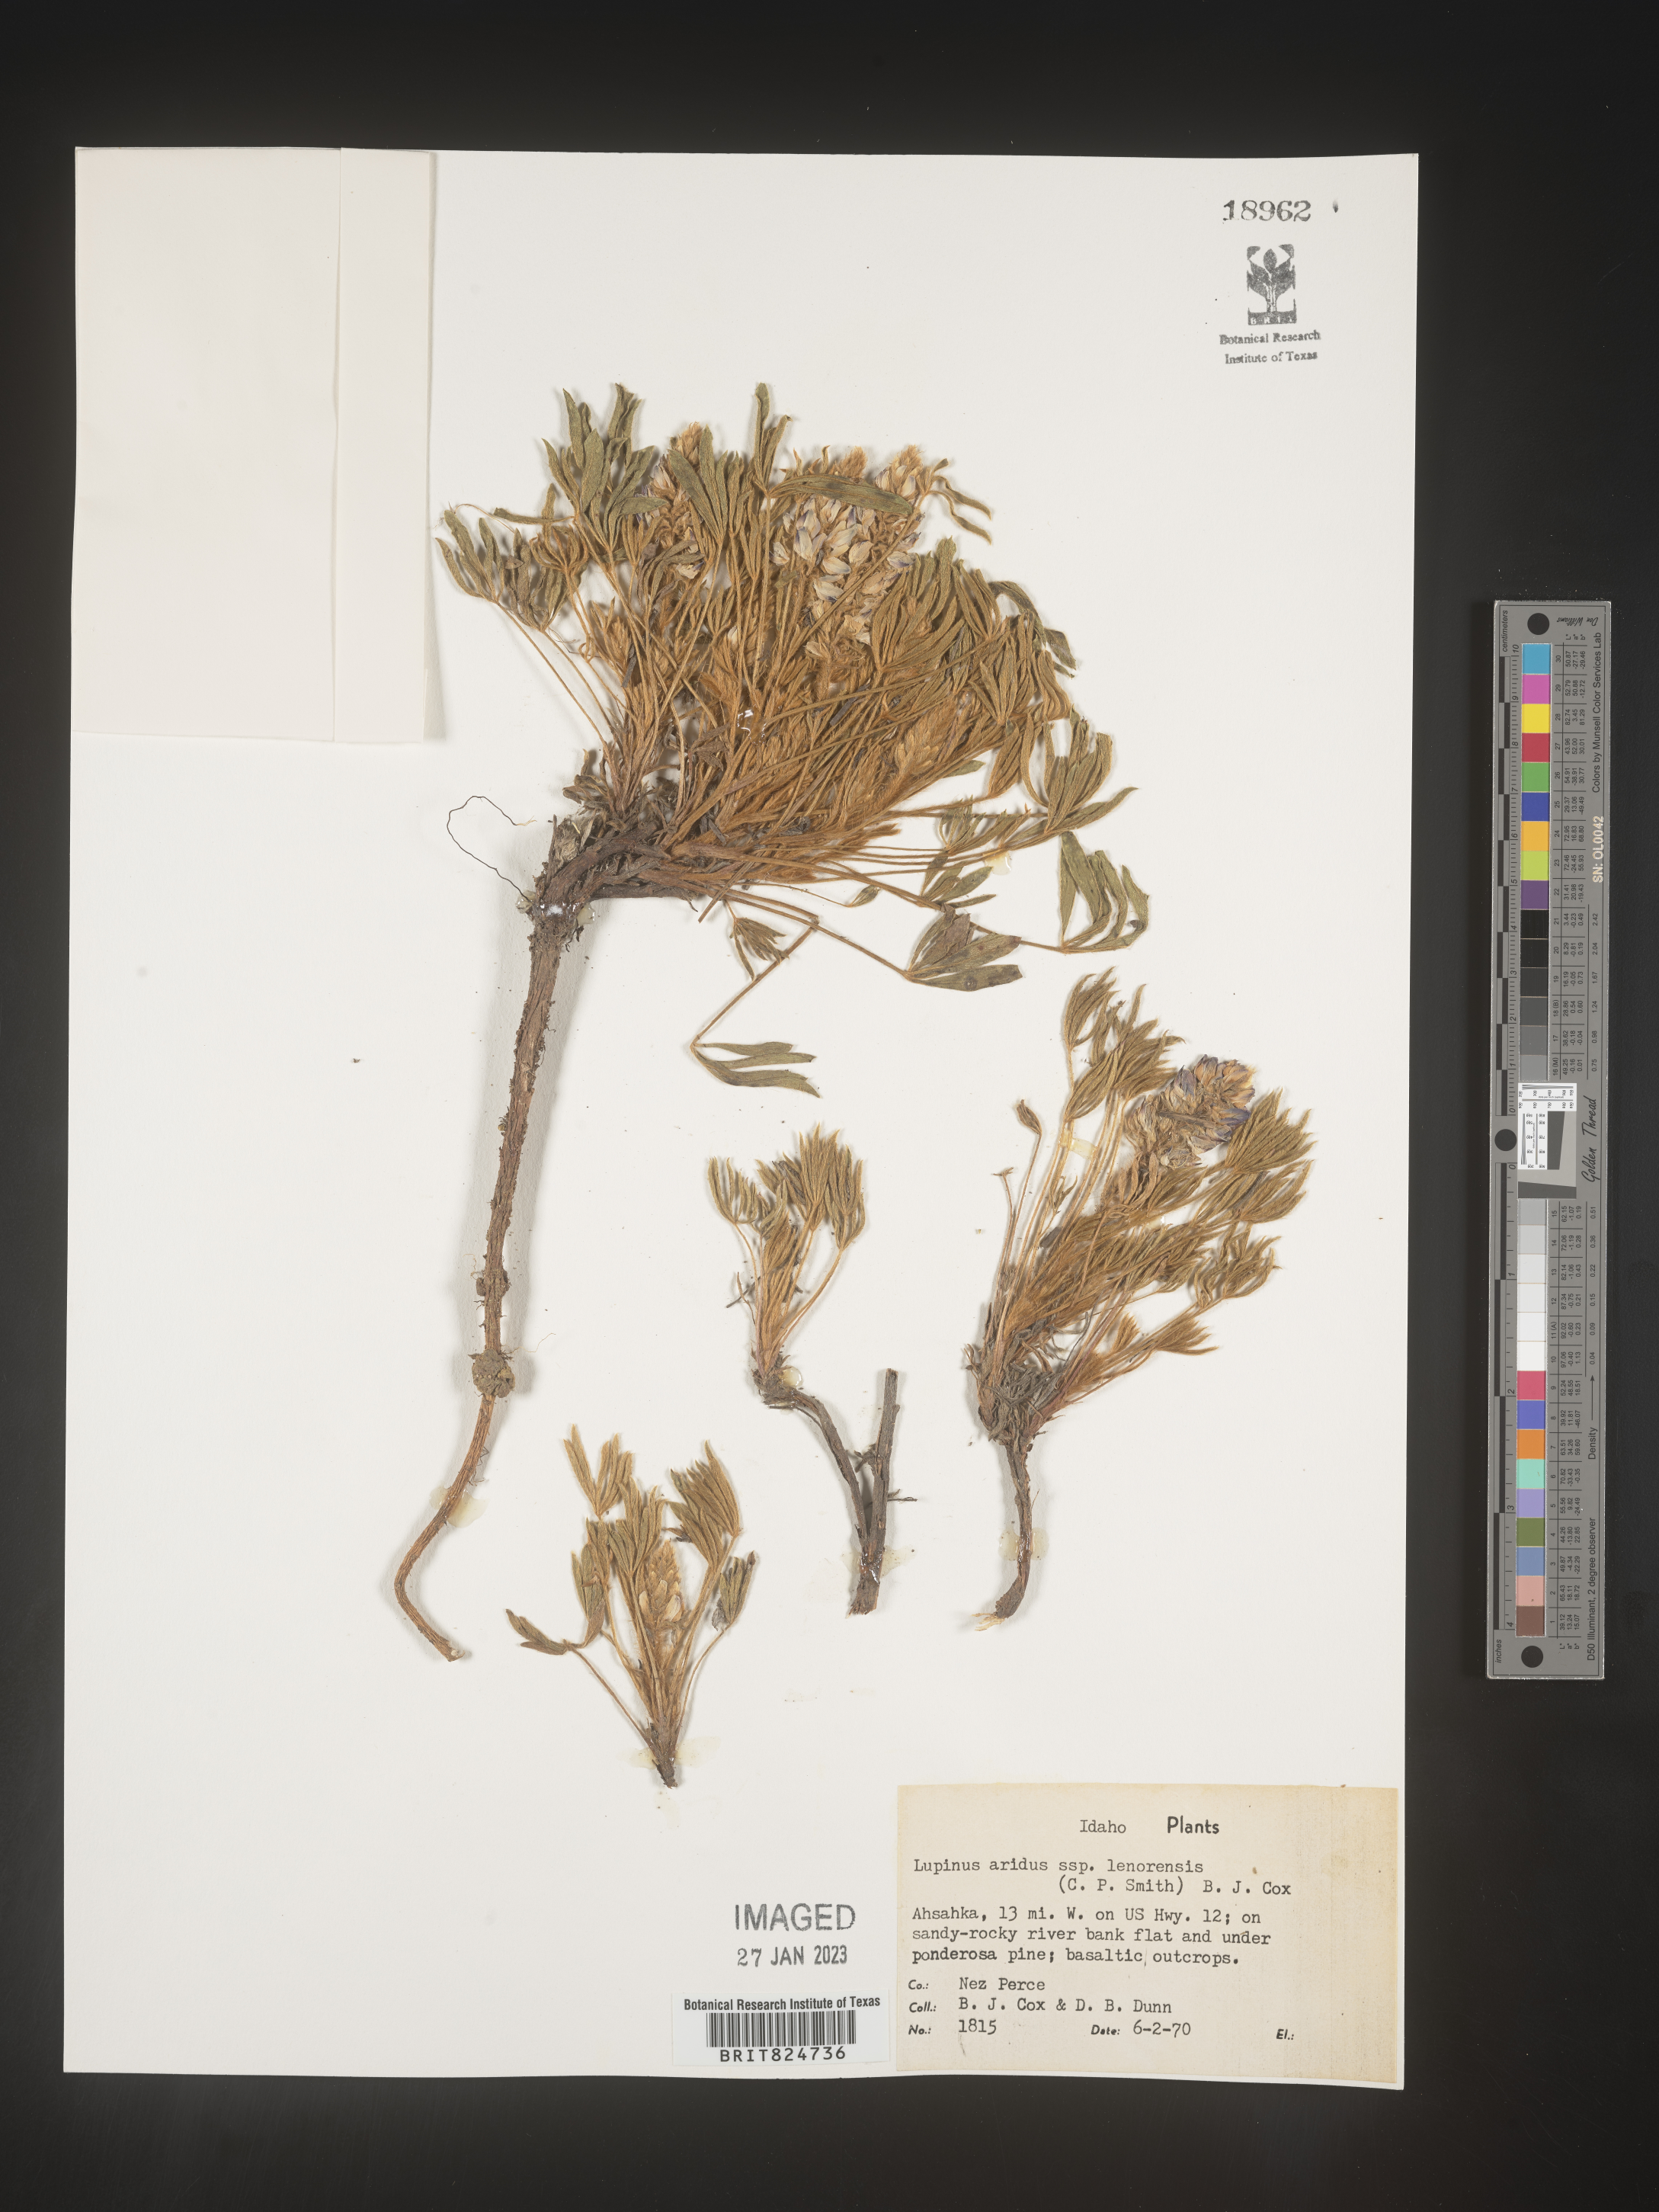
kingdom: Plantae
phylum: Tracheophyta
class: Magnoliopsida
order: Fabales
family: Fabaceae
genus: Lupinus
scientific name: Lupinus aridus
